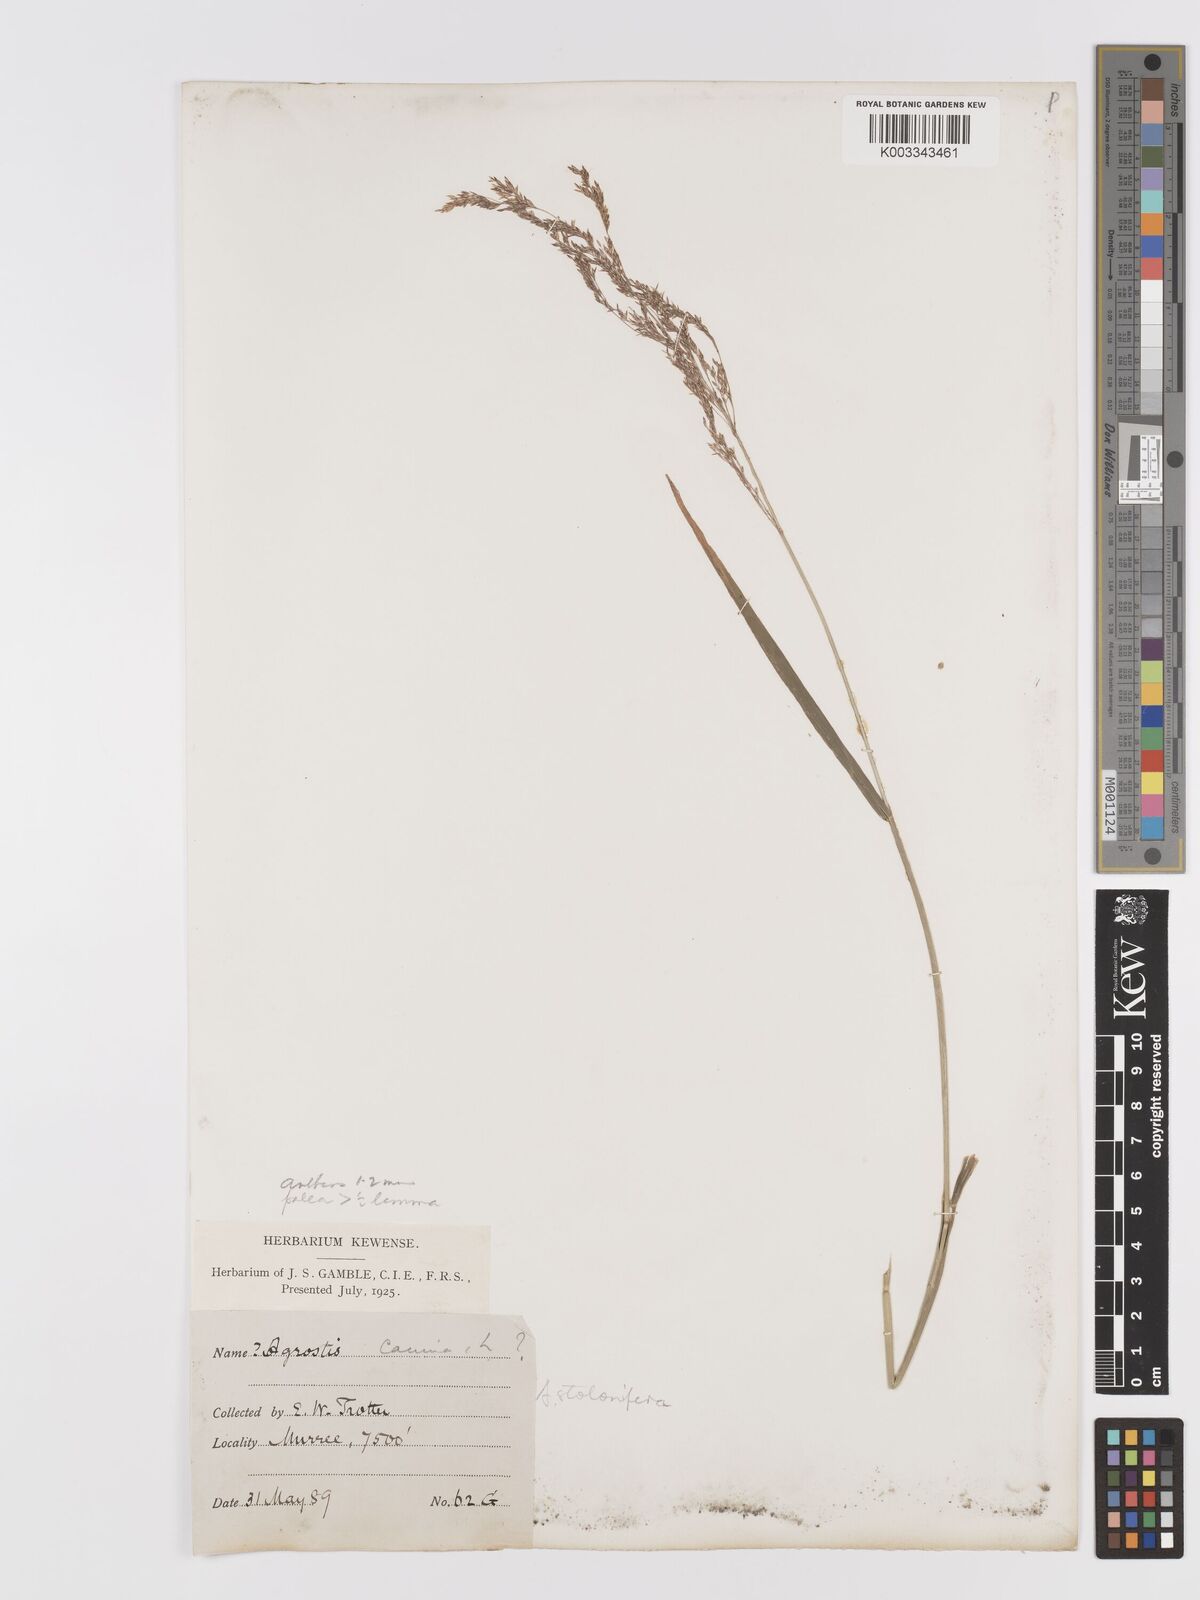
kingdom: Plantae
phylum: Tracheophyta
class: Liliopsida
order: Poales
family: Poaceae
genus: Agrostis
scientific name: Agrostis stolonifera
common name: Creeping bentgrass
